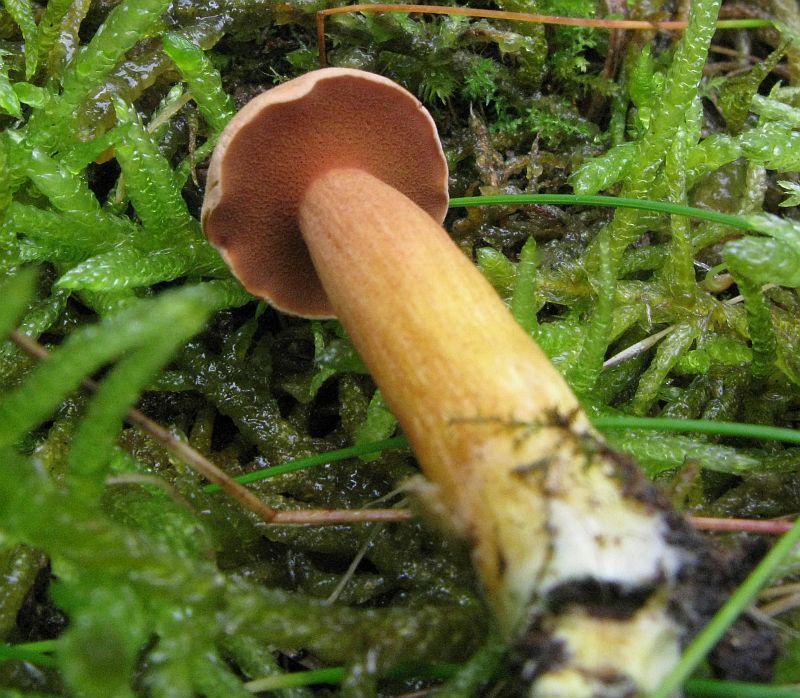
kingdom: Fungi
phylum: Basidiomycota
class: Agaricomycetes
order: Boletales
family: Boletaceae
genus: Chalciporus
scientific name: Chalciporus piperatus
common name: peberrørhat
